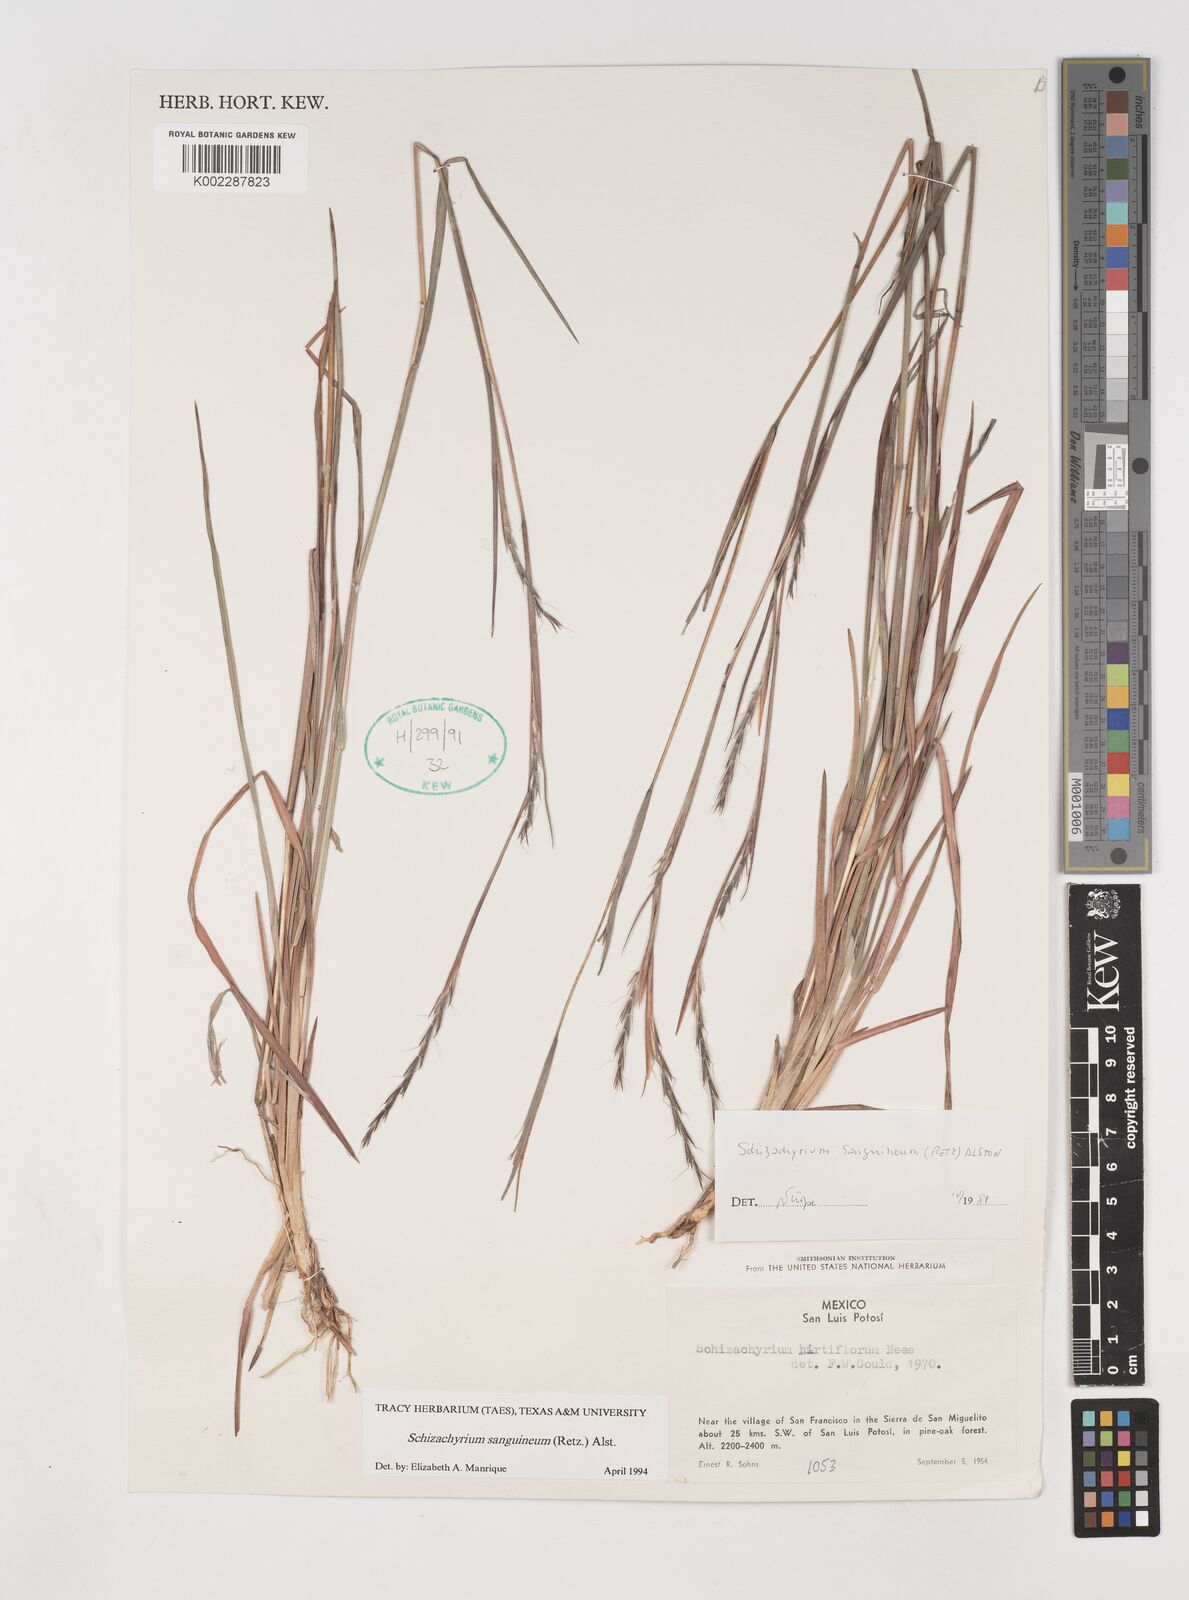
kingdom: Plantae
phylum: Tracheophyta
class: Liliopsida
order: Poales
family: Poaceae
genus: Schizachyrium
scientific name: Schizachyrium sanguineum
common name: Crimson bluestem
